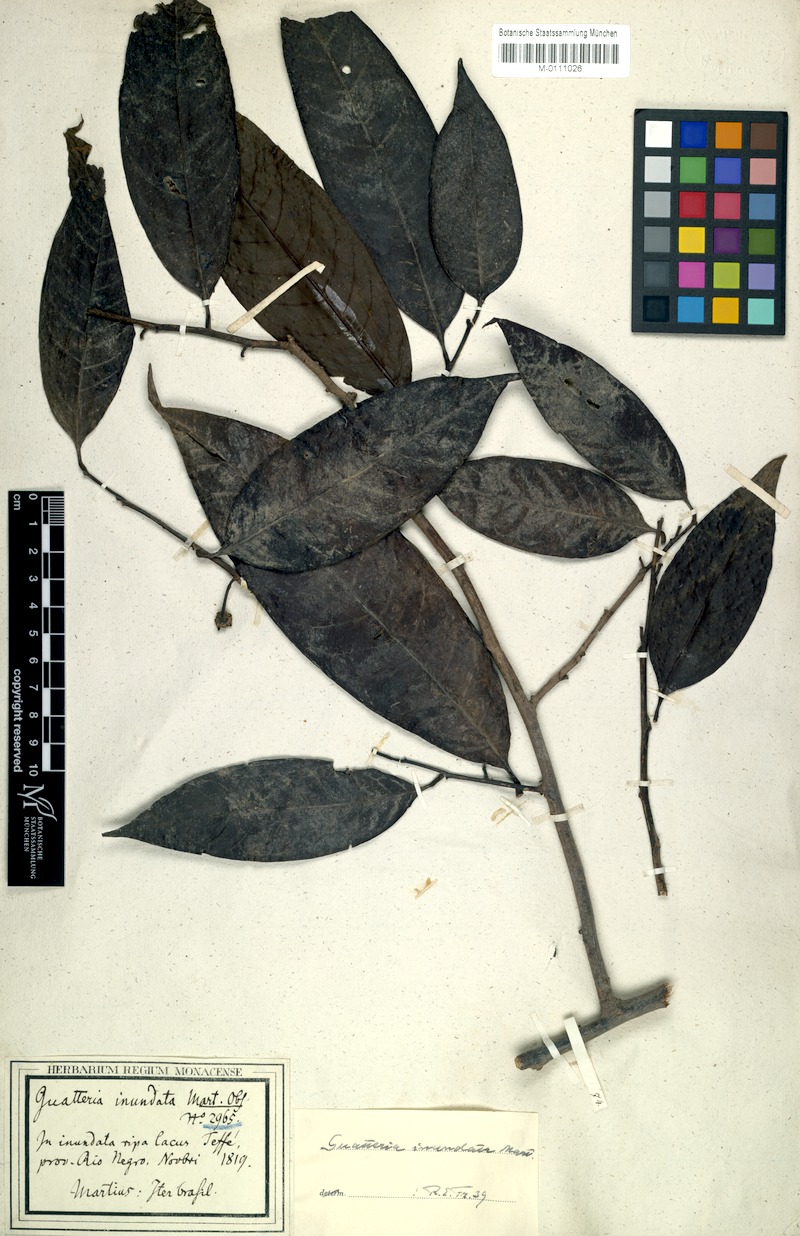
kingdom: Plantae
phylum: Tracheophyta
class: Magnoliopsida
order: Magnoliales
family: Annonaceae
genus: Guatteria
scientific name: Guatteria inundata
